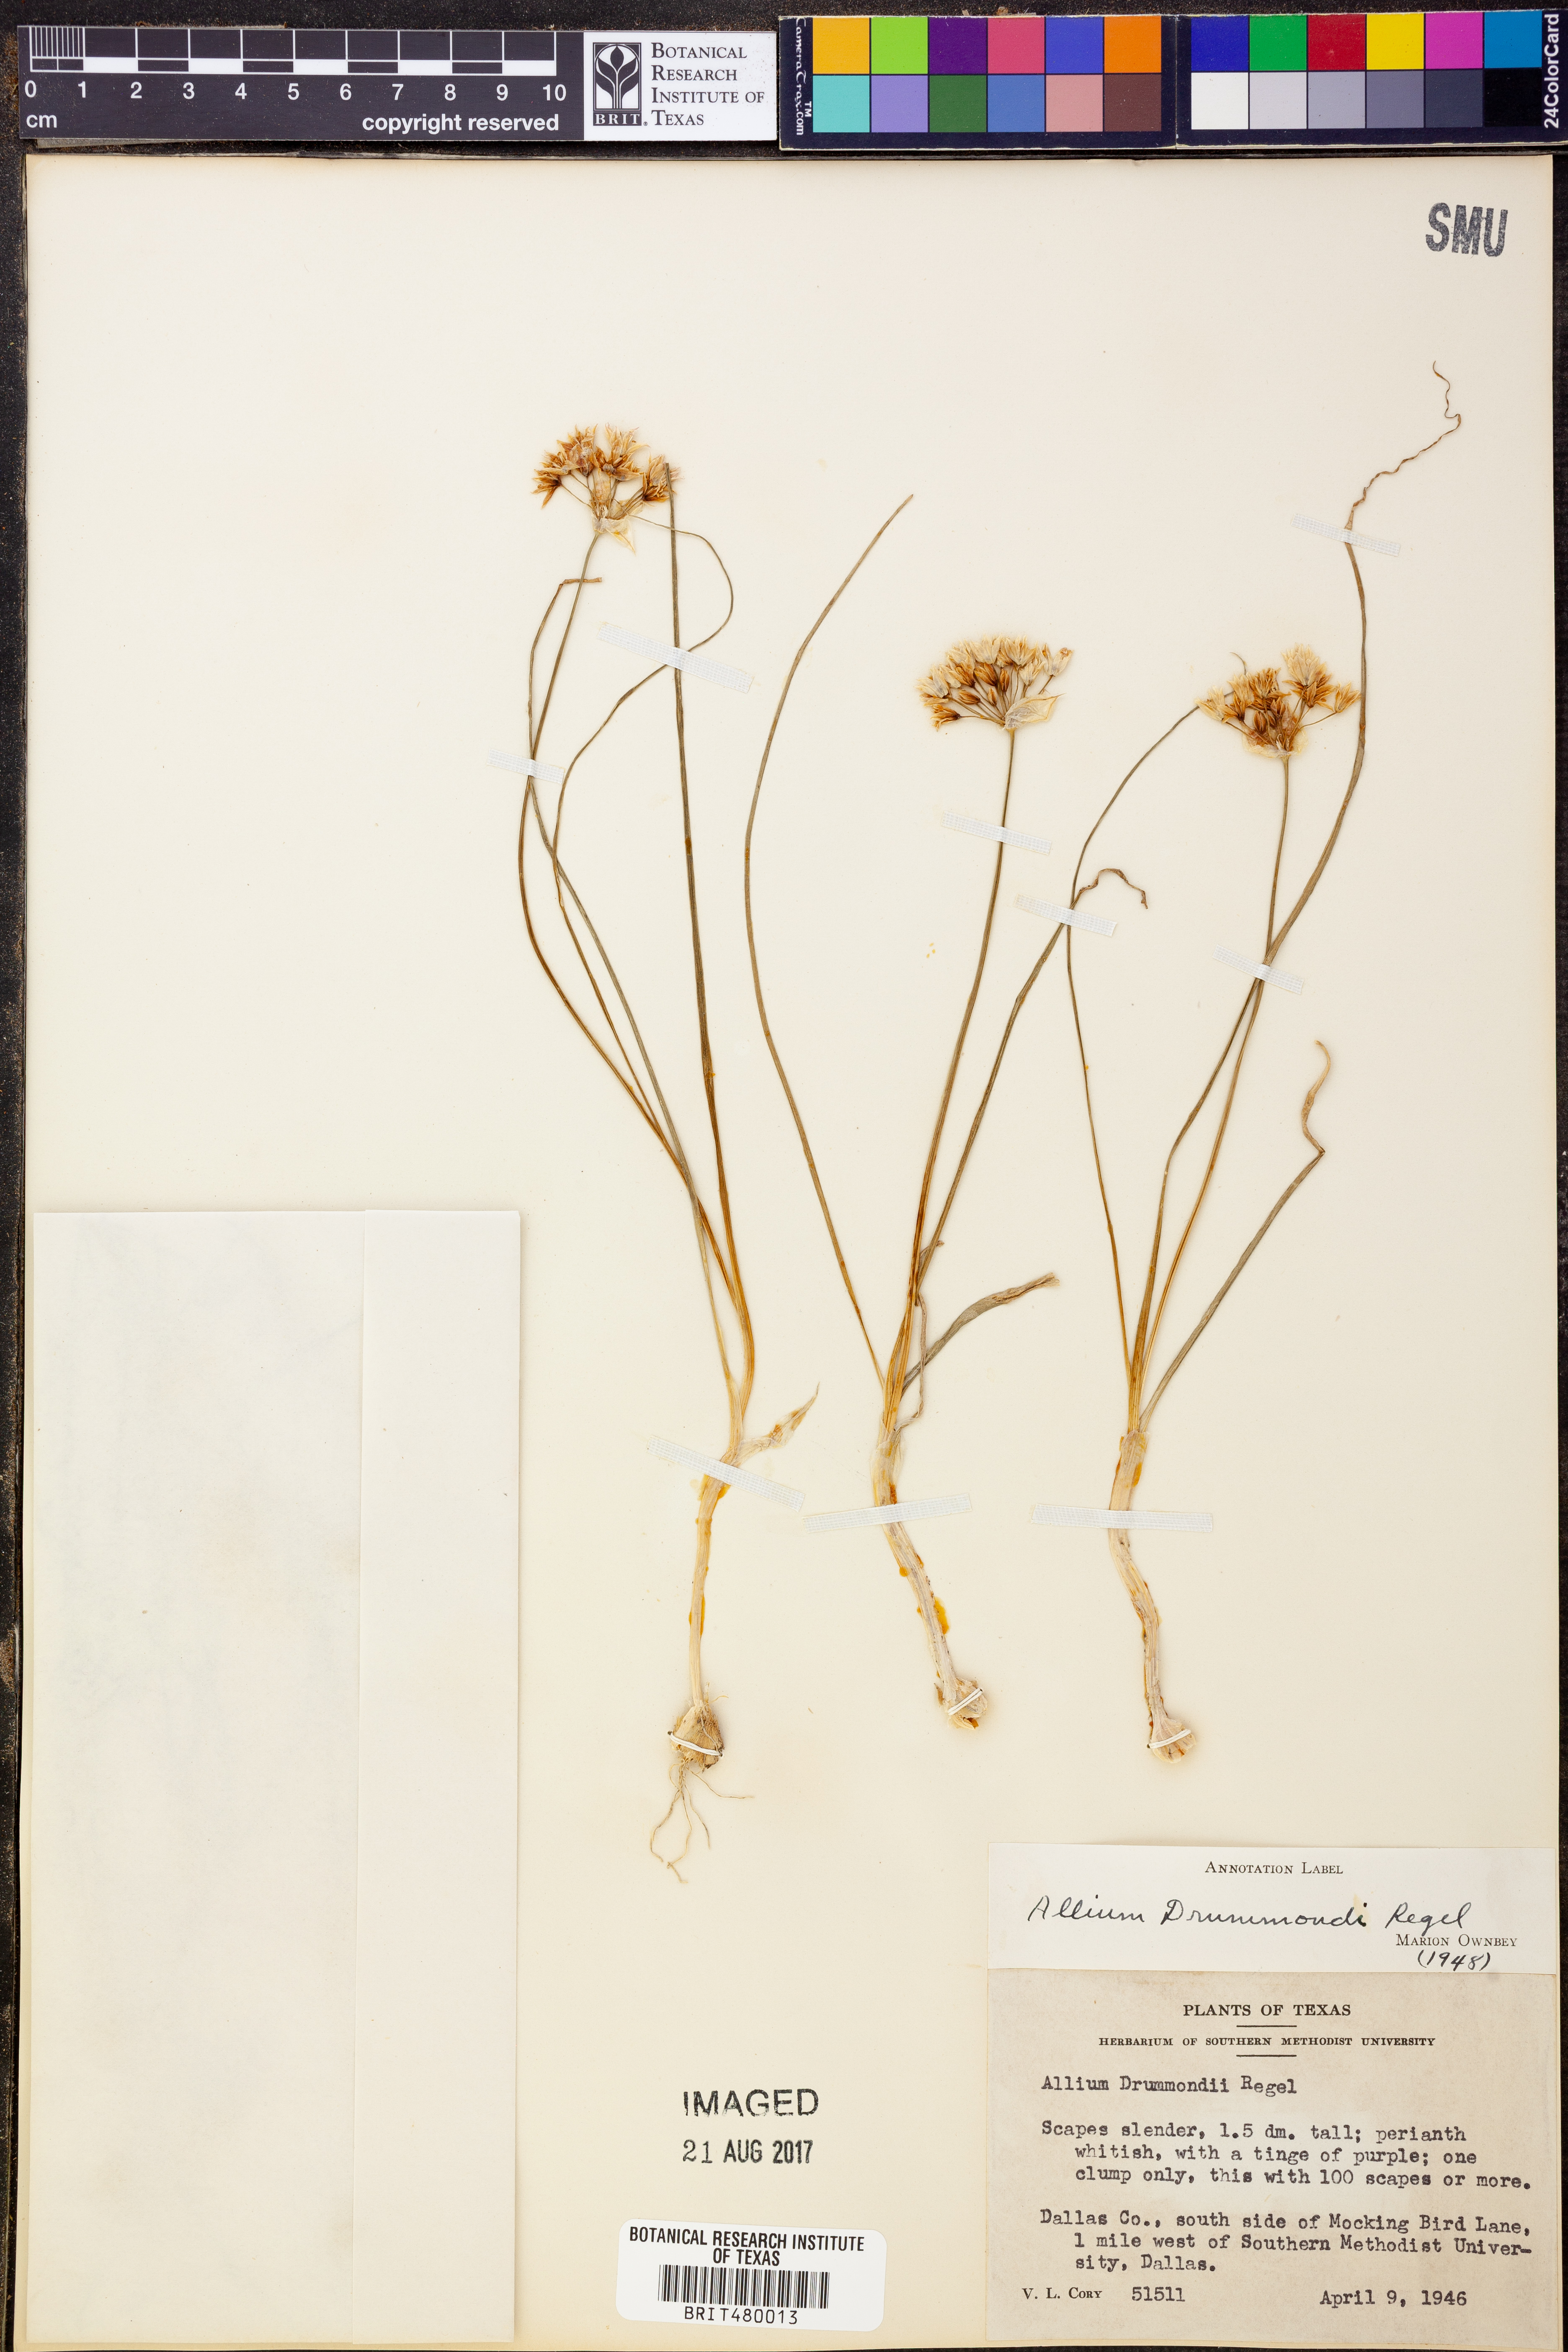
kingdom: Plantae
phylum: Tracheophyta
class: Liliopsida
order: Asparagales
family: Amaryllidaceae
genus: Allium
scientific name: Allium drummondii
